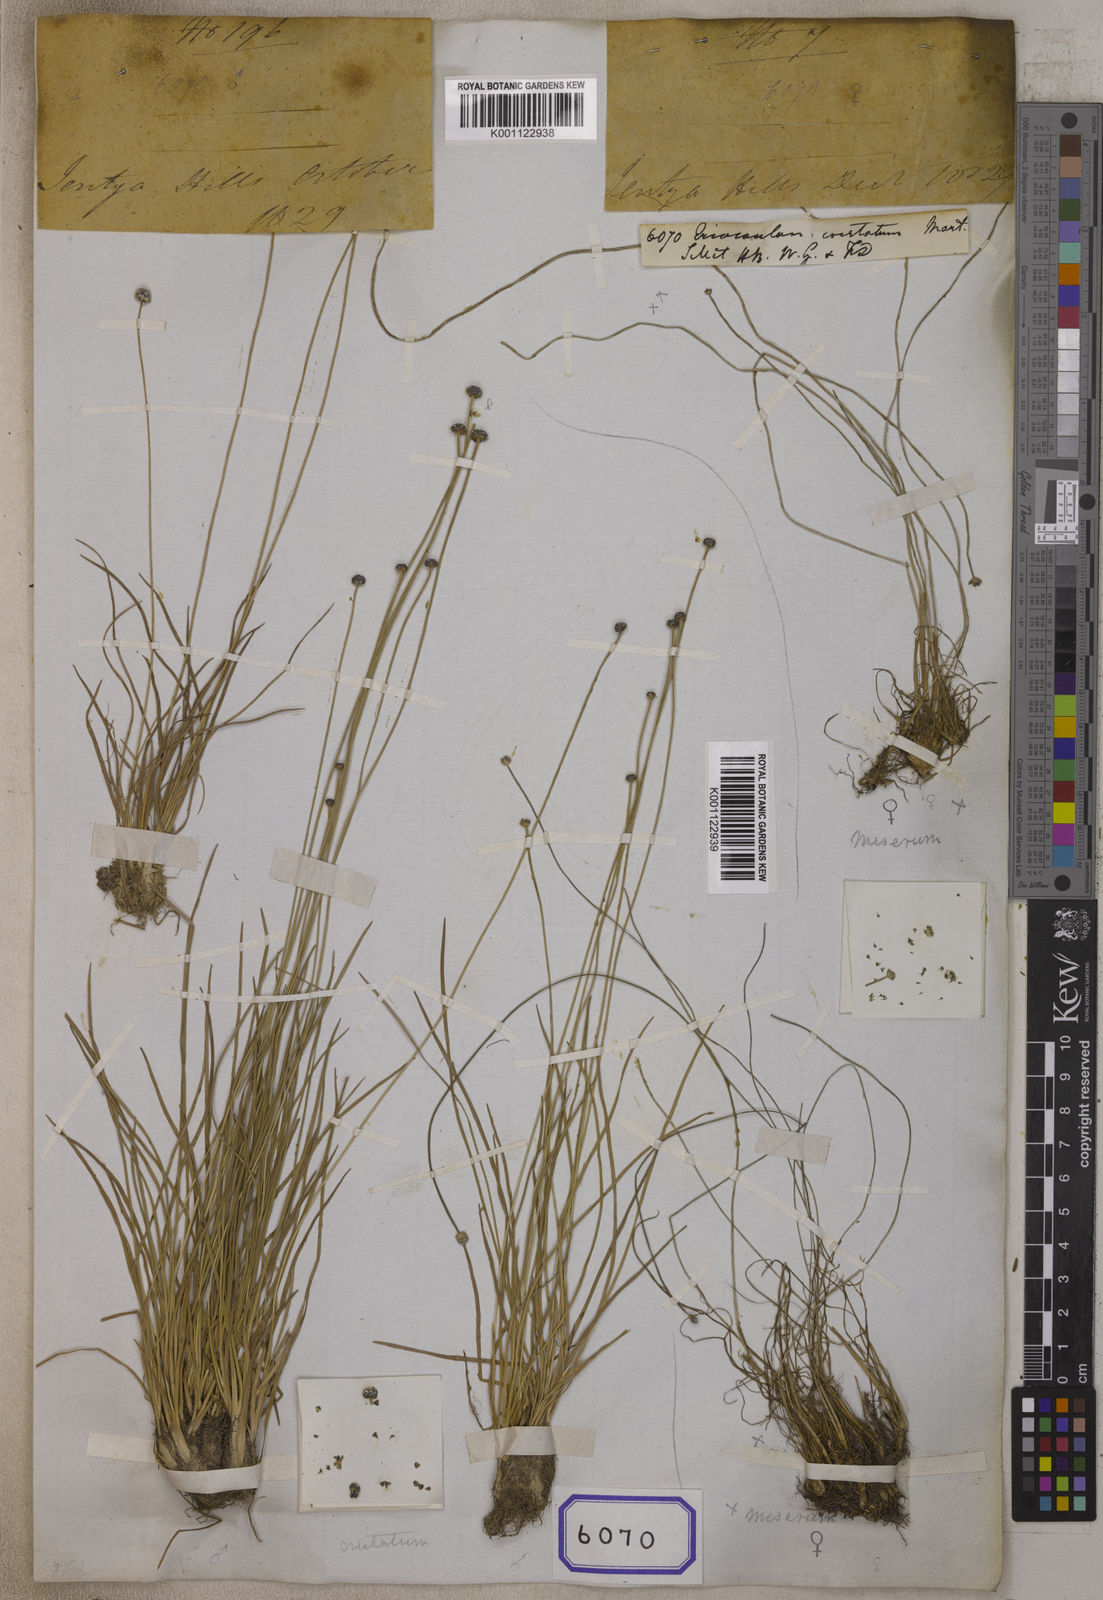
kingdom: Plantae
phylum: Tracheophyta
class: Liliopsida
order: Poales
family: Eriocaulaceae
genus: Eriocaulon
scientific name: Eriocaulon cristatum
